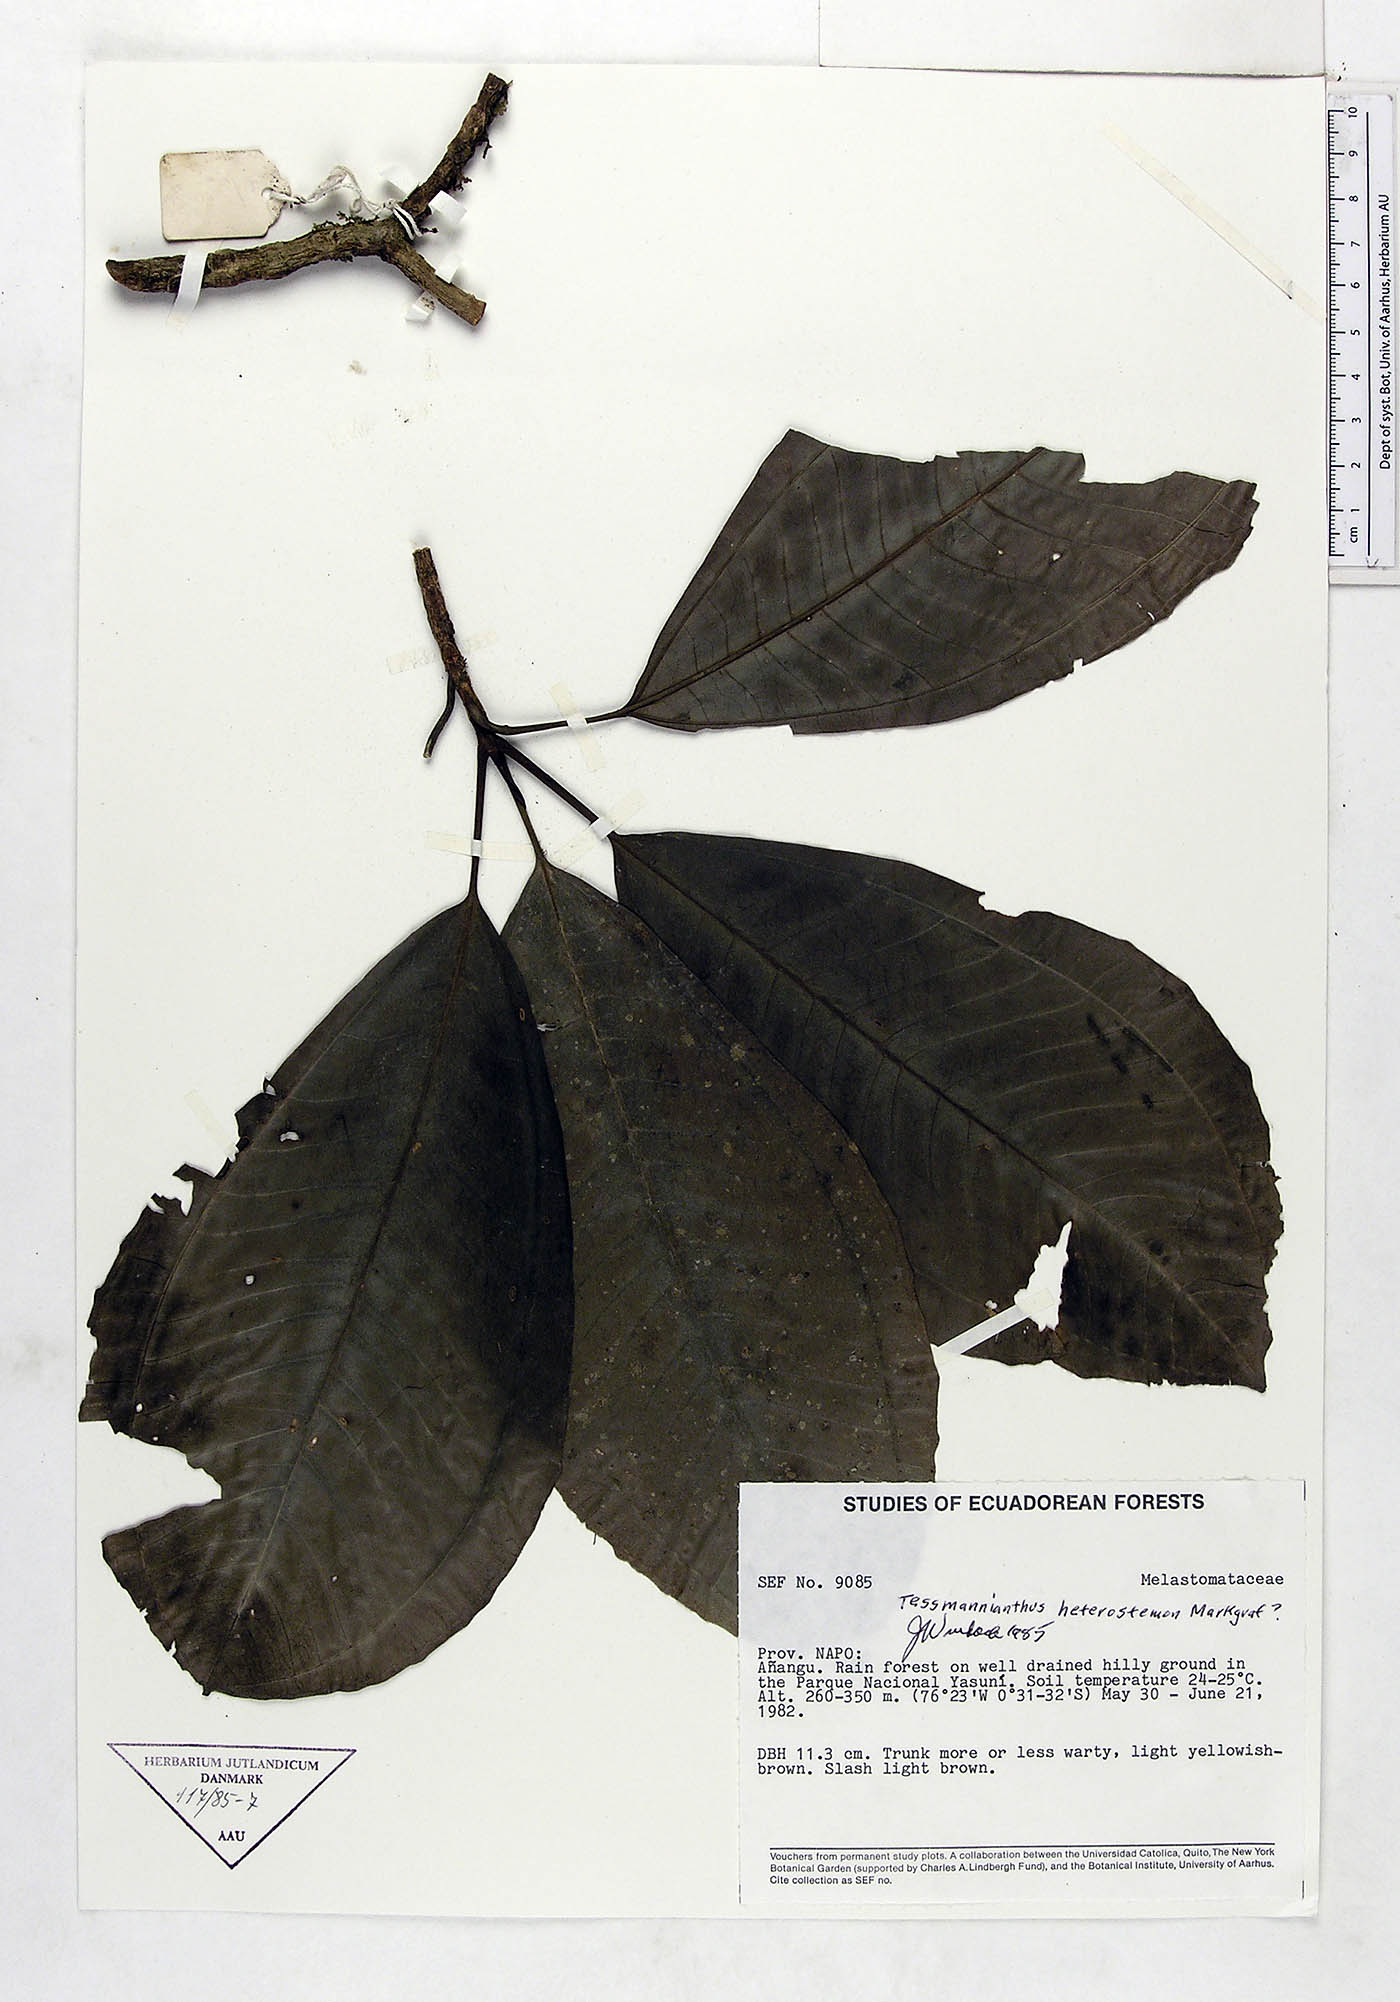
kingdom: Plantae
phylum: Tracheophyta
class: Magnoliopsida
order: Myrtales
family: Melastomataceae
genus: Tessmannianthus
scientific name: Tessmannianthus heterostemon
